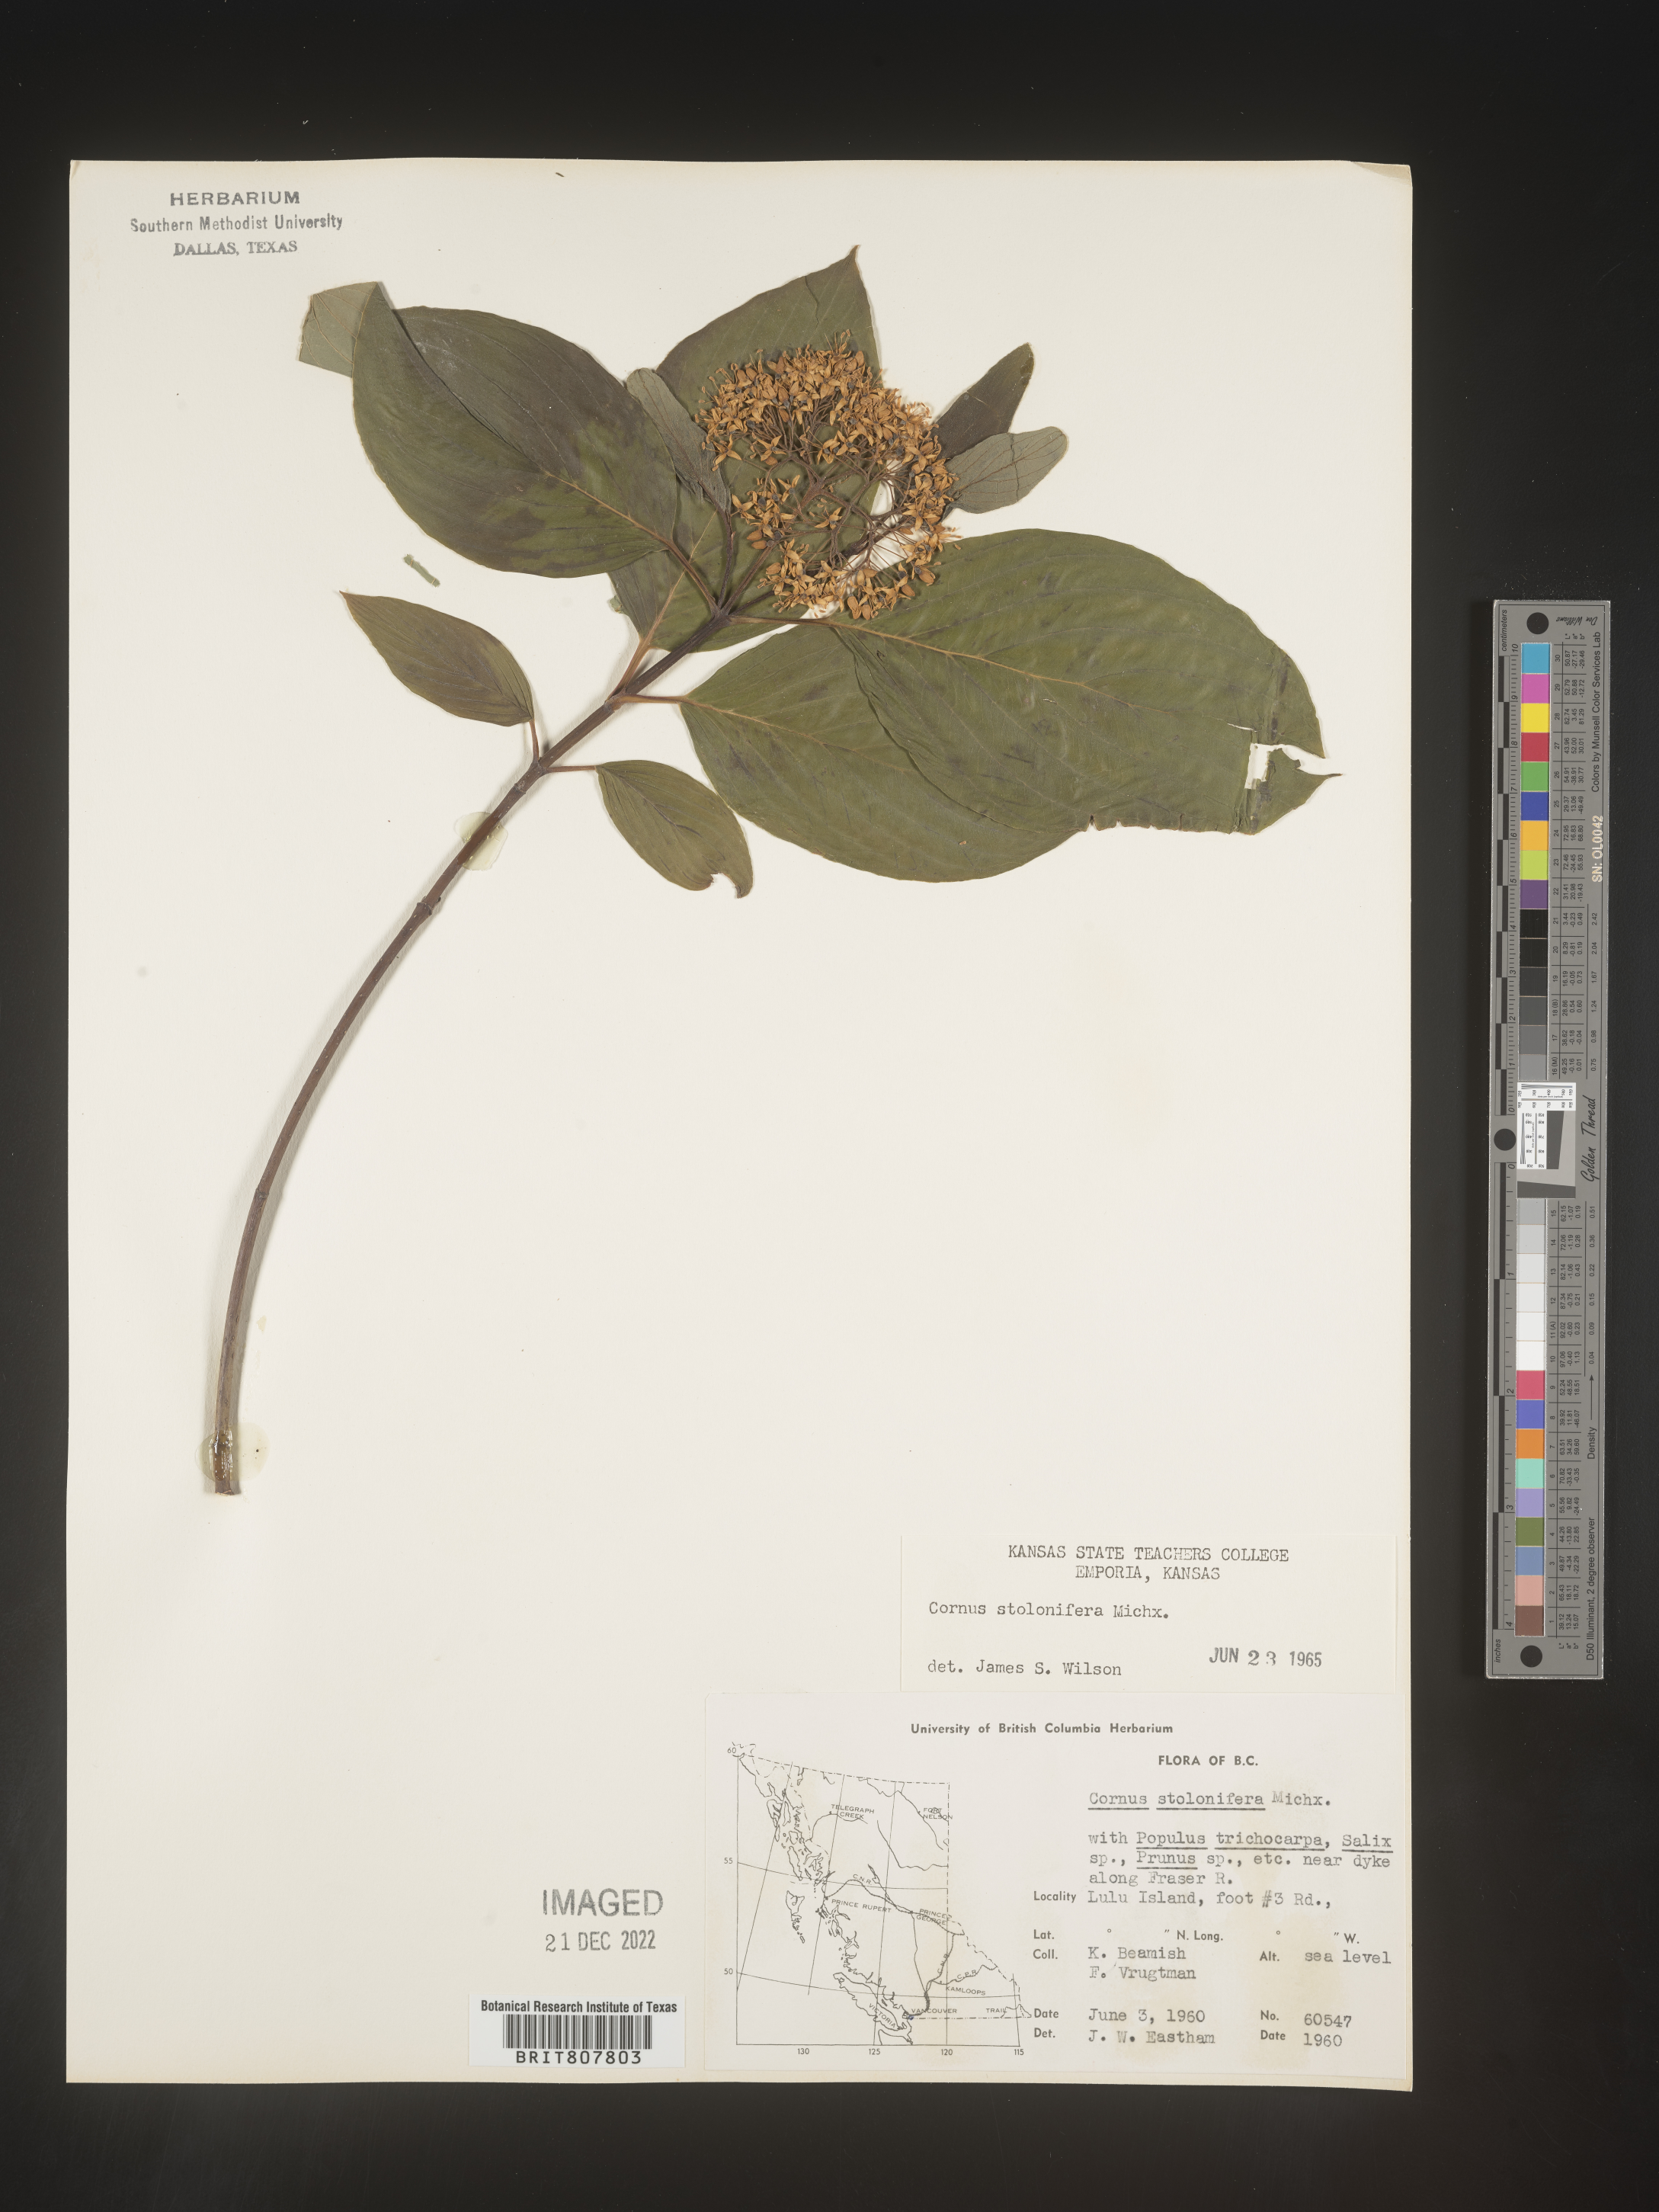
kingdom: Plantae
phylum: Tracheophyta
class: Magnoliopsida
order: Cornales
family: Cornaceae
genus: Cornus
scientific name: Cornus sericea
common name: Red-osier dogwood
